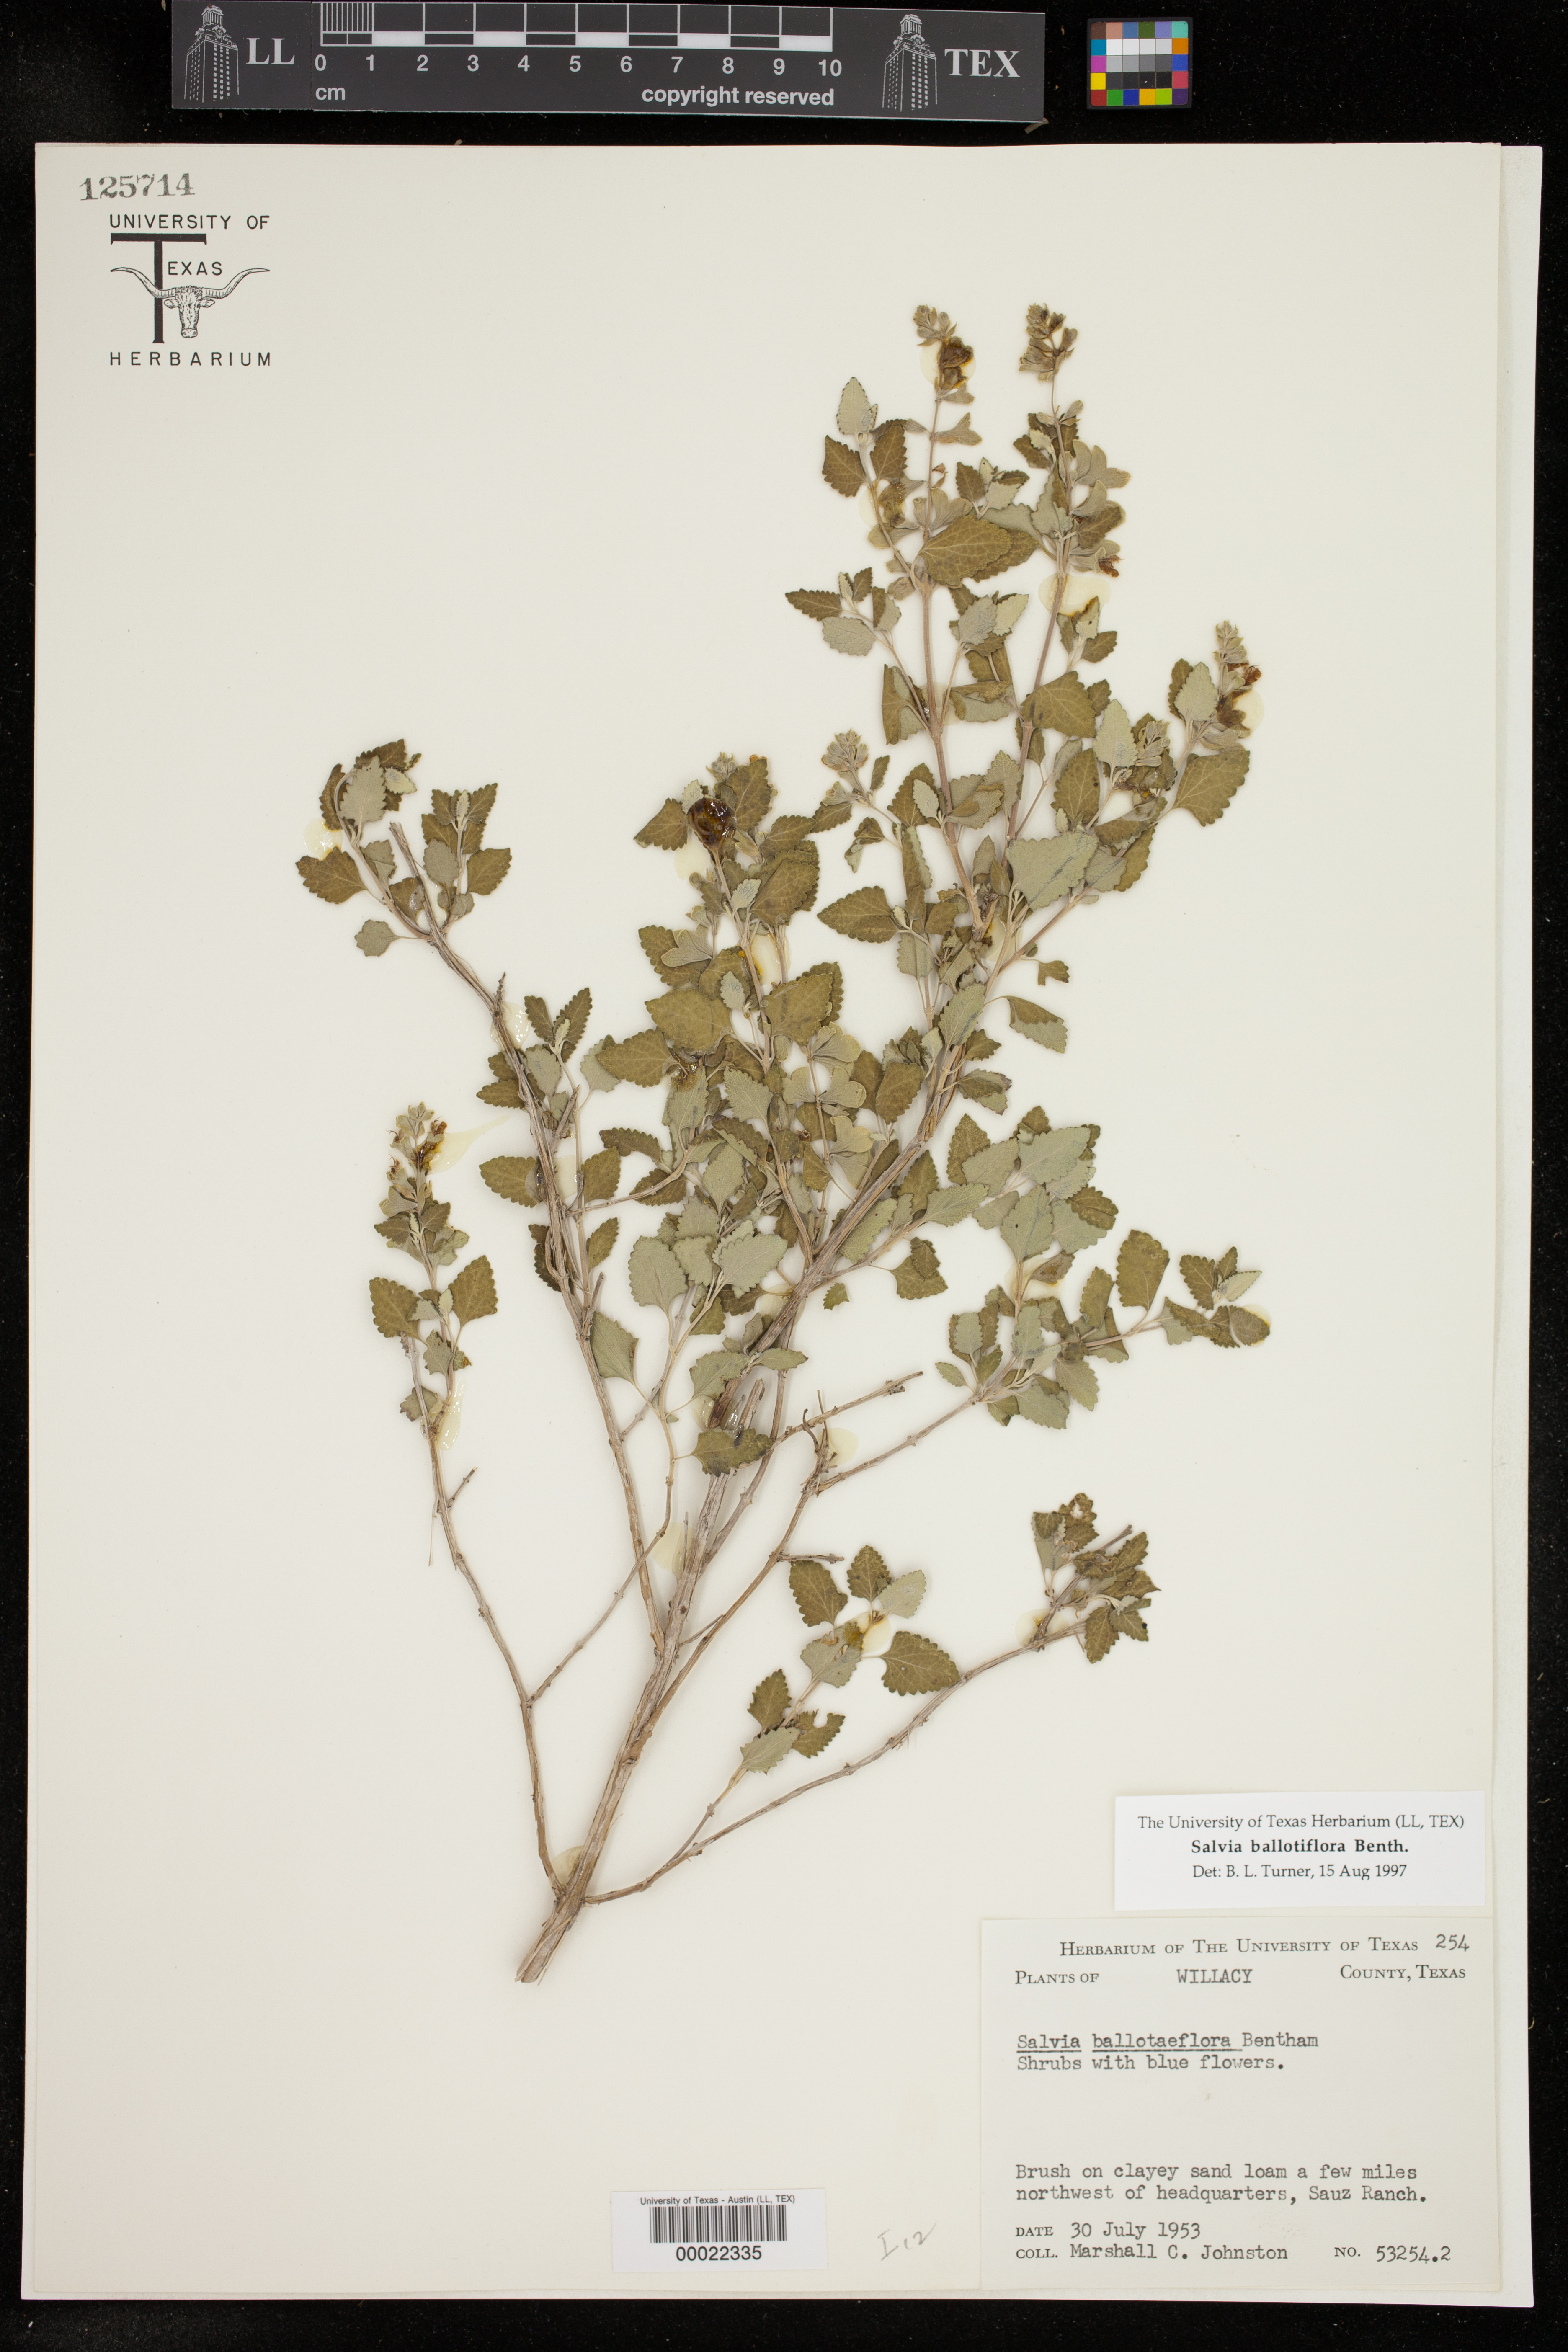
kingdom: Plantae
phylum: Tracheophyta
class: Magnoliopsida
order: Lamiales
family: Lamiaceae
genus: Salvia
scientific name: Salvia ballotiflora
